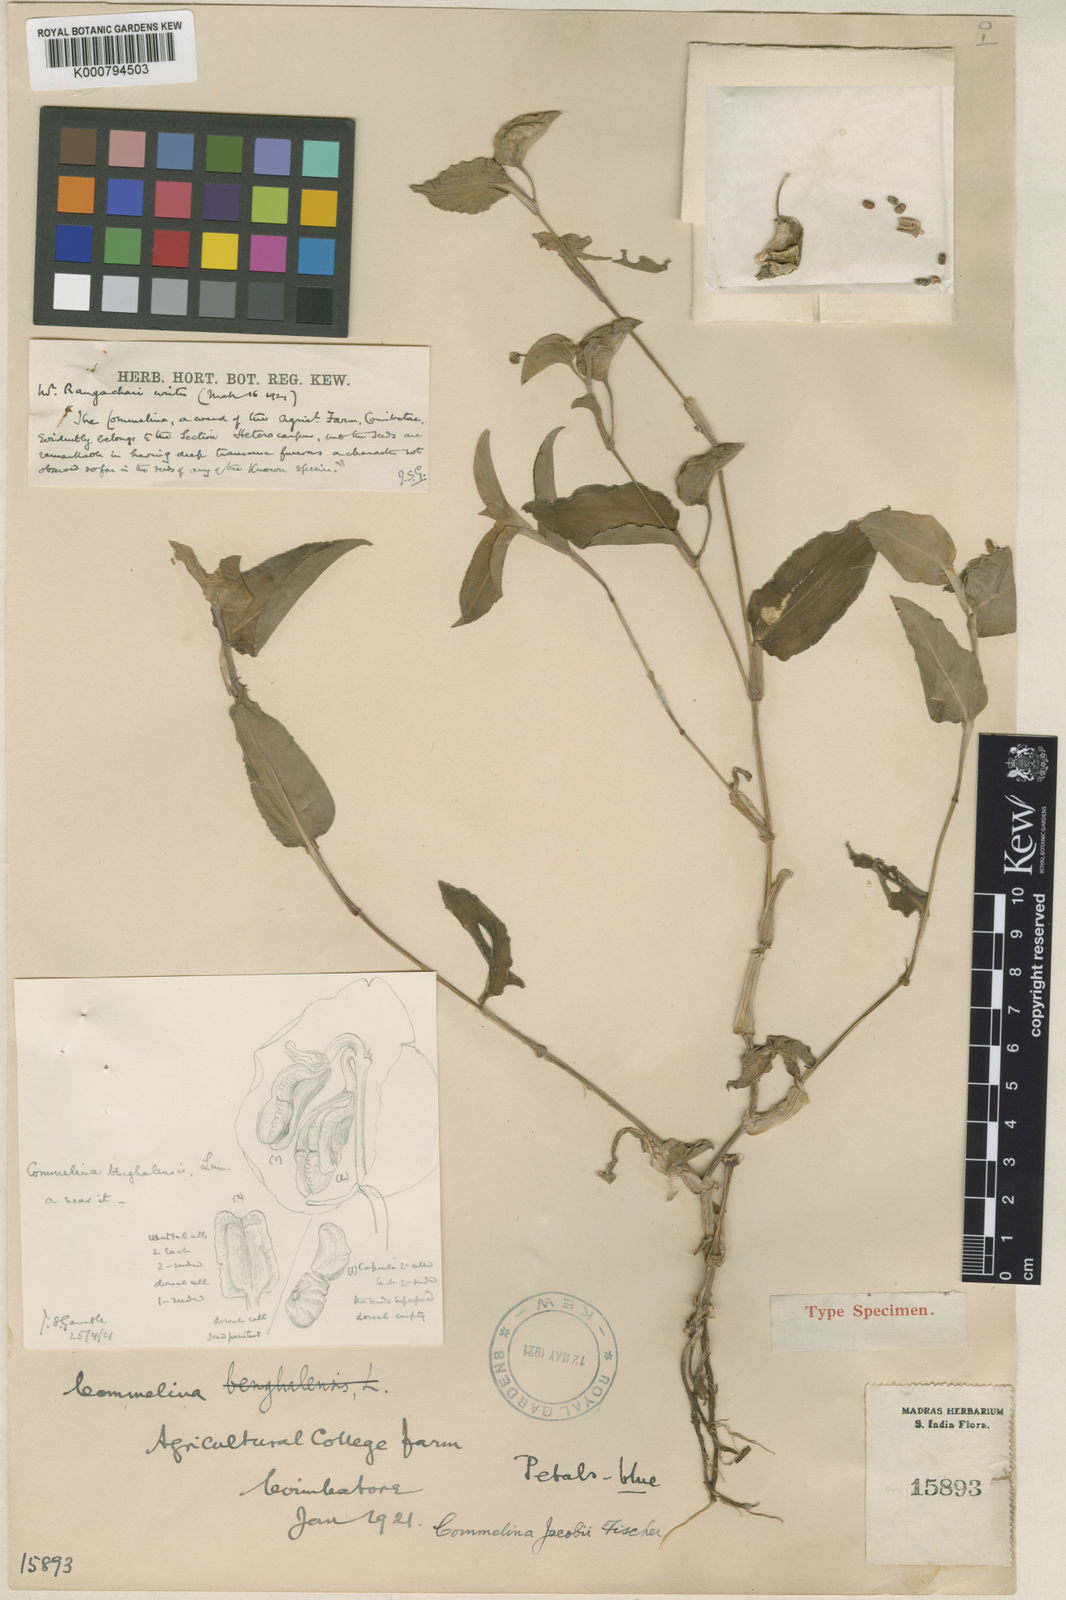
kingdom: Plantae
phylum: Tracheophyta
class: Liliopsida
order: Commelinales
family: Commelinaceae
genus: Commelina
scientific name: Commelina petersii
